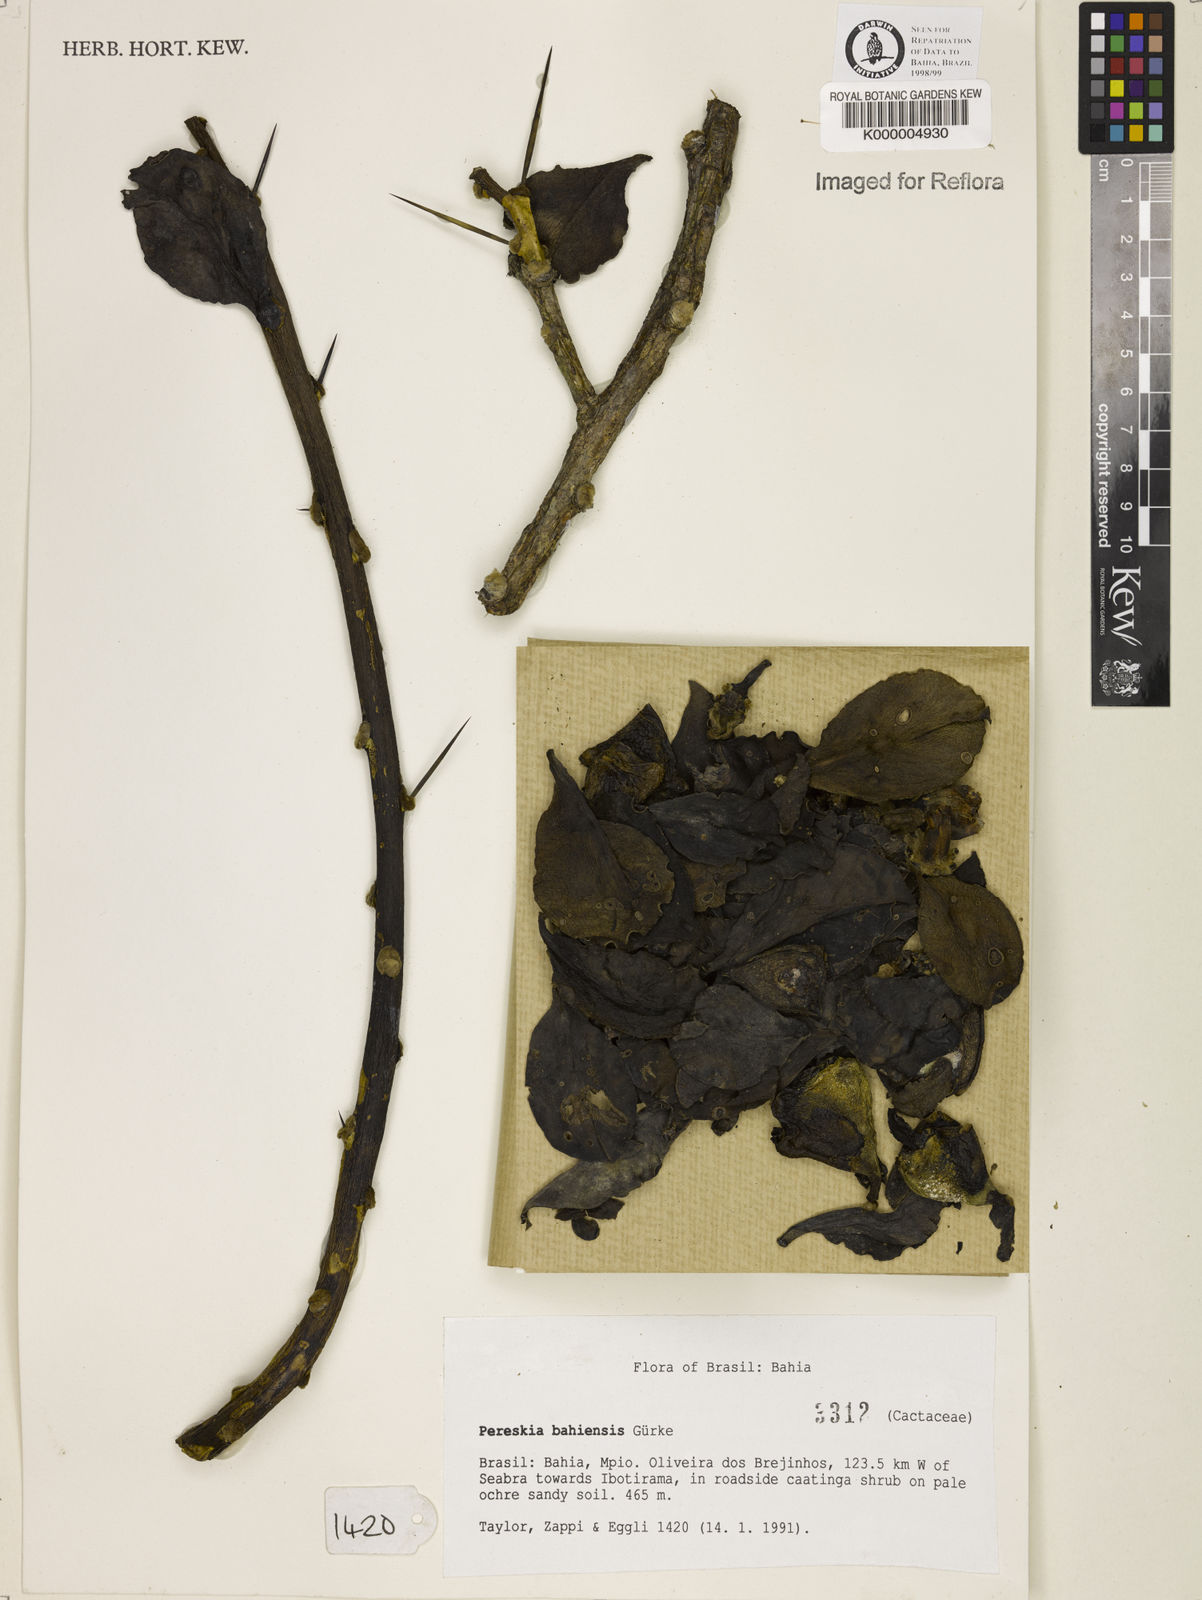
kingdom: Plantae
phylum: Tracheophyta
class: Magnoliopsida
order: Caryophyllales
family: Cactaceae
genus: Pereskia
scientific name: Pereskia
